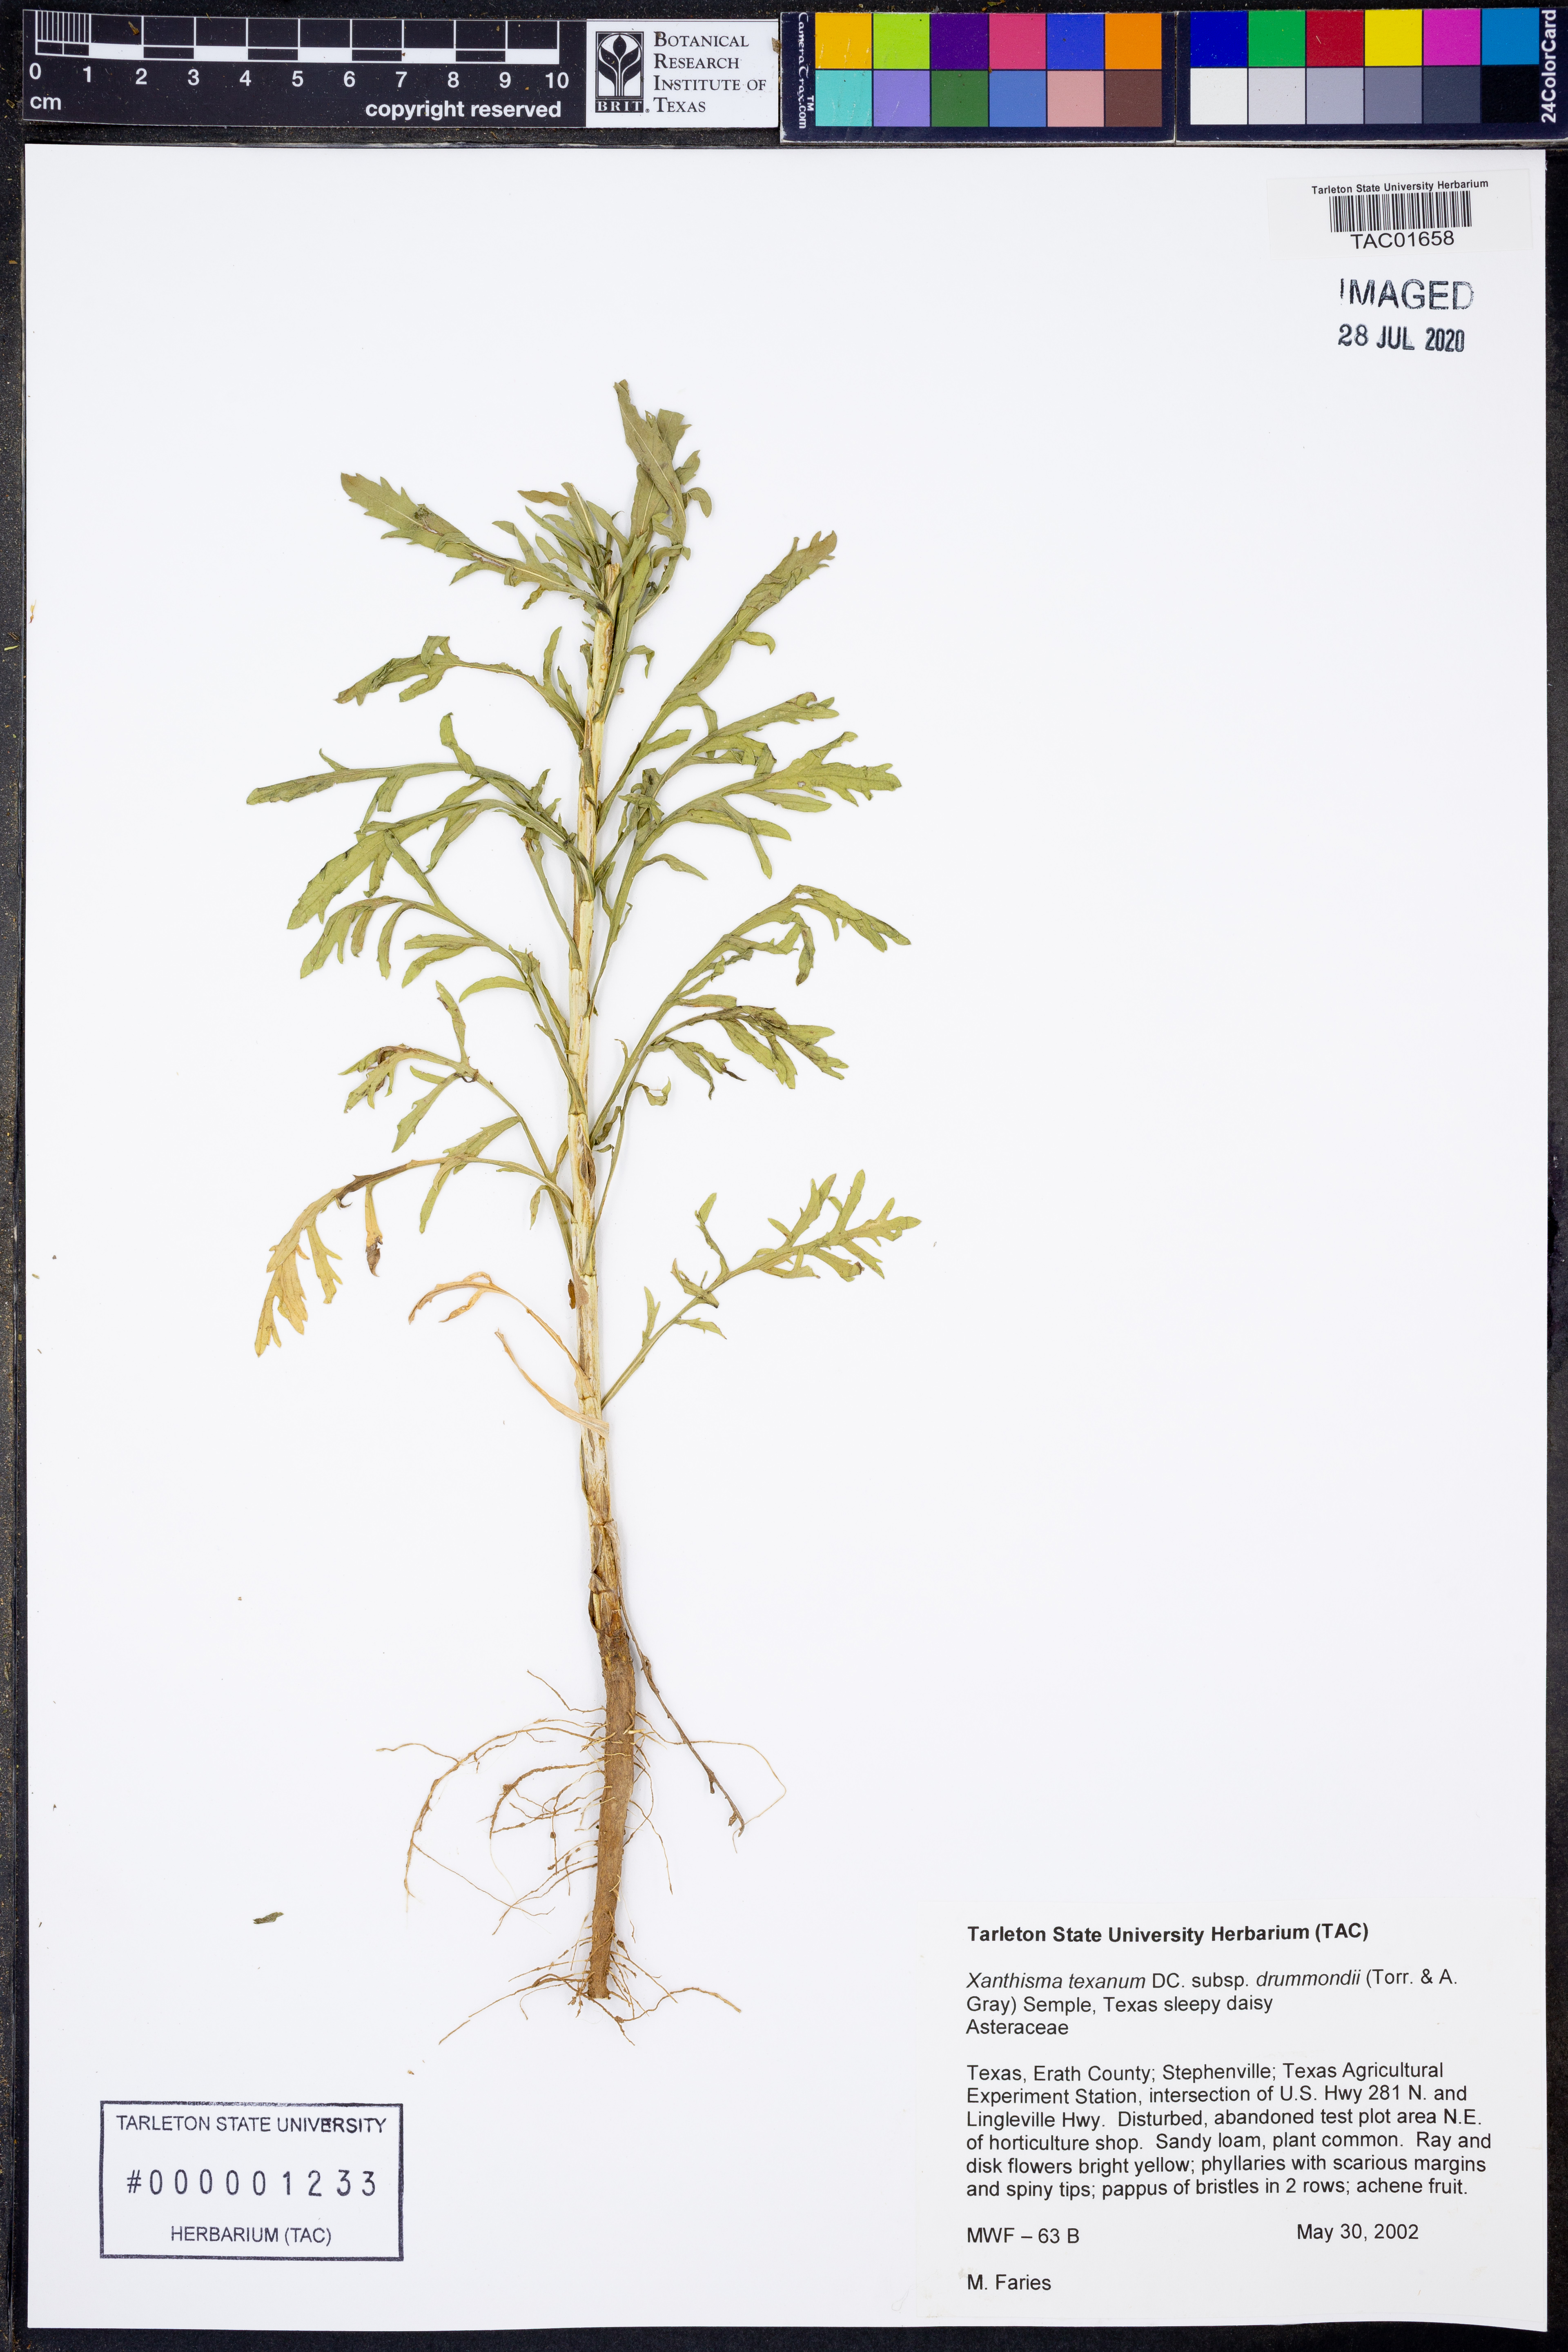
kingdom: Plantae
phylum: Tracheophyta
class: Magnoliopsida
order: Asterales
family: Asteraceae
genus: Xanthisma
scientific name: Xanthisma texanum
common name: Texas sleepy daisy
